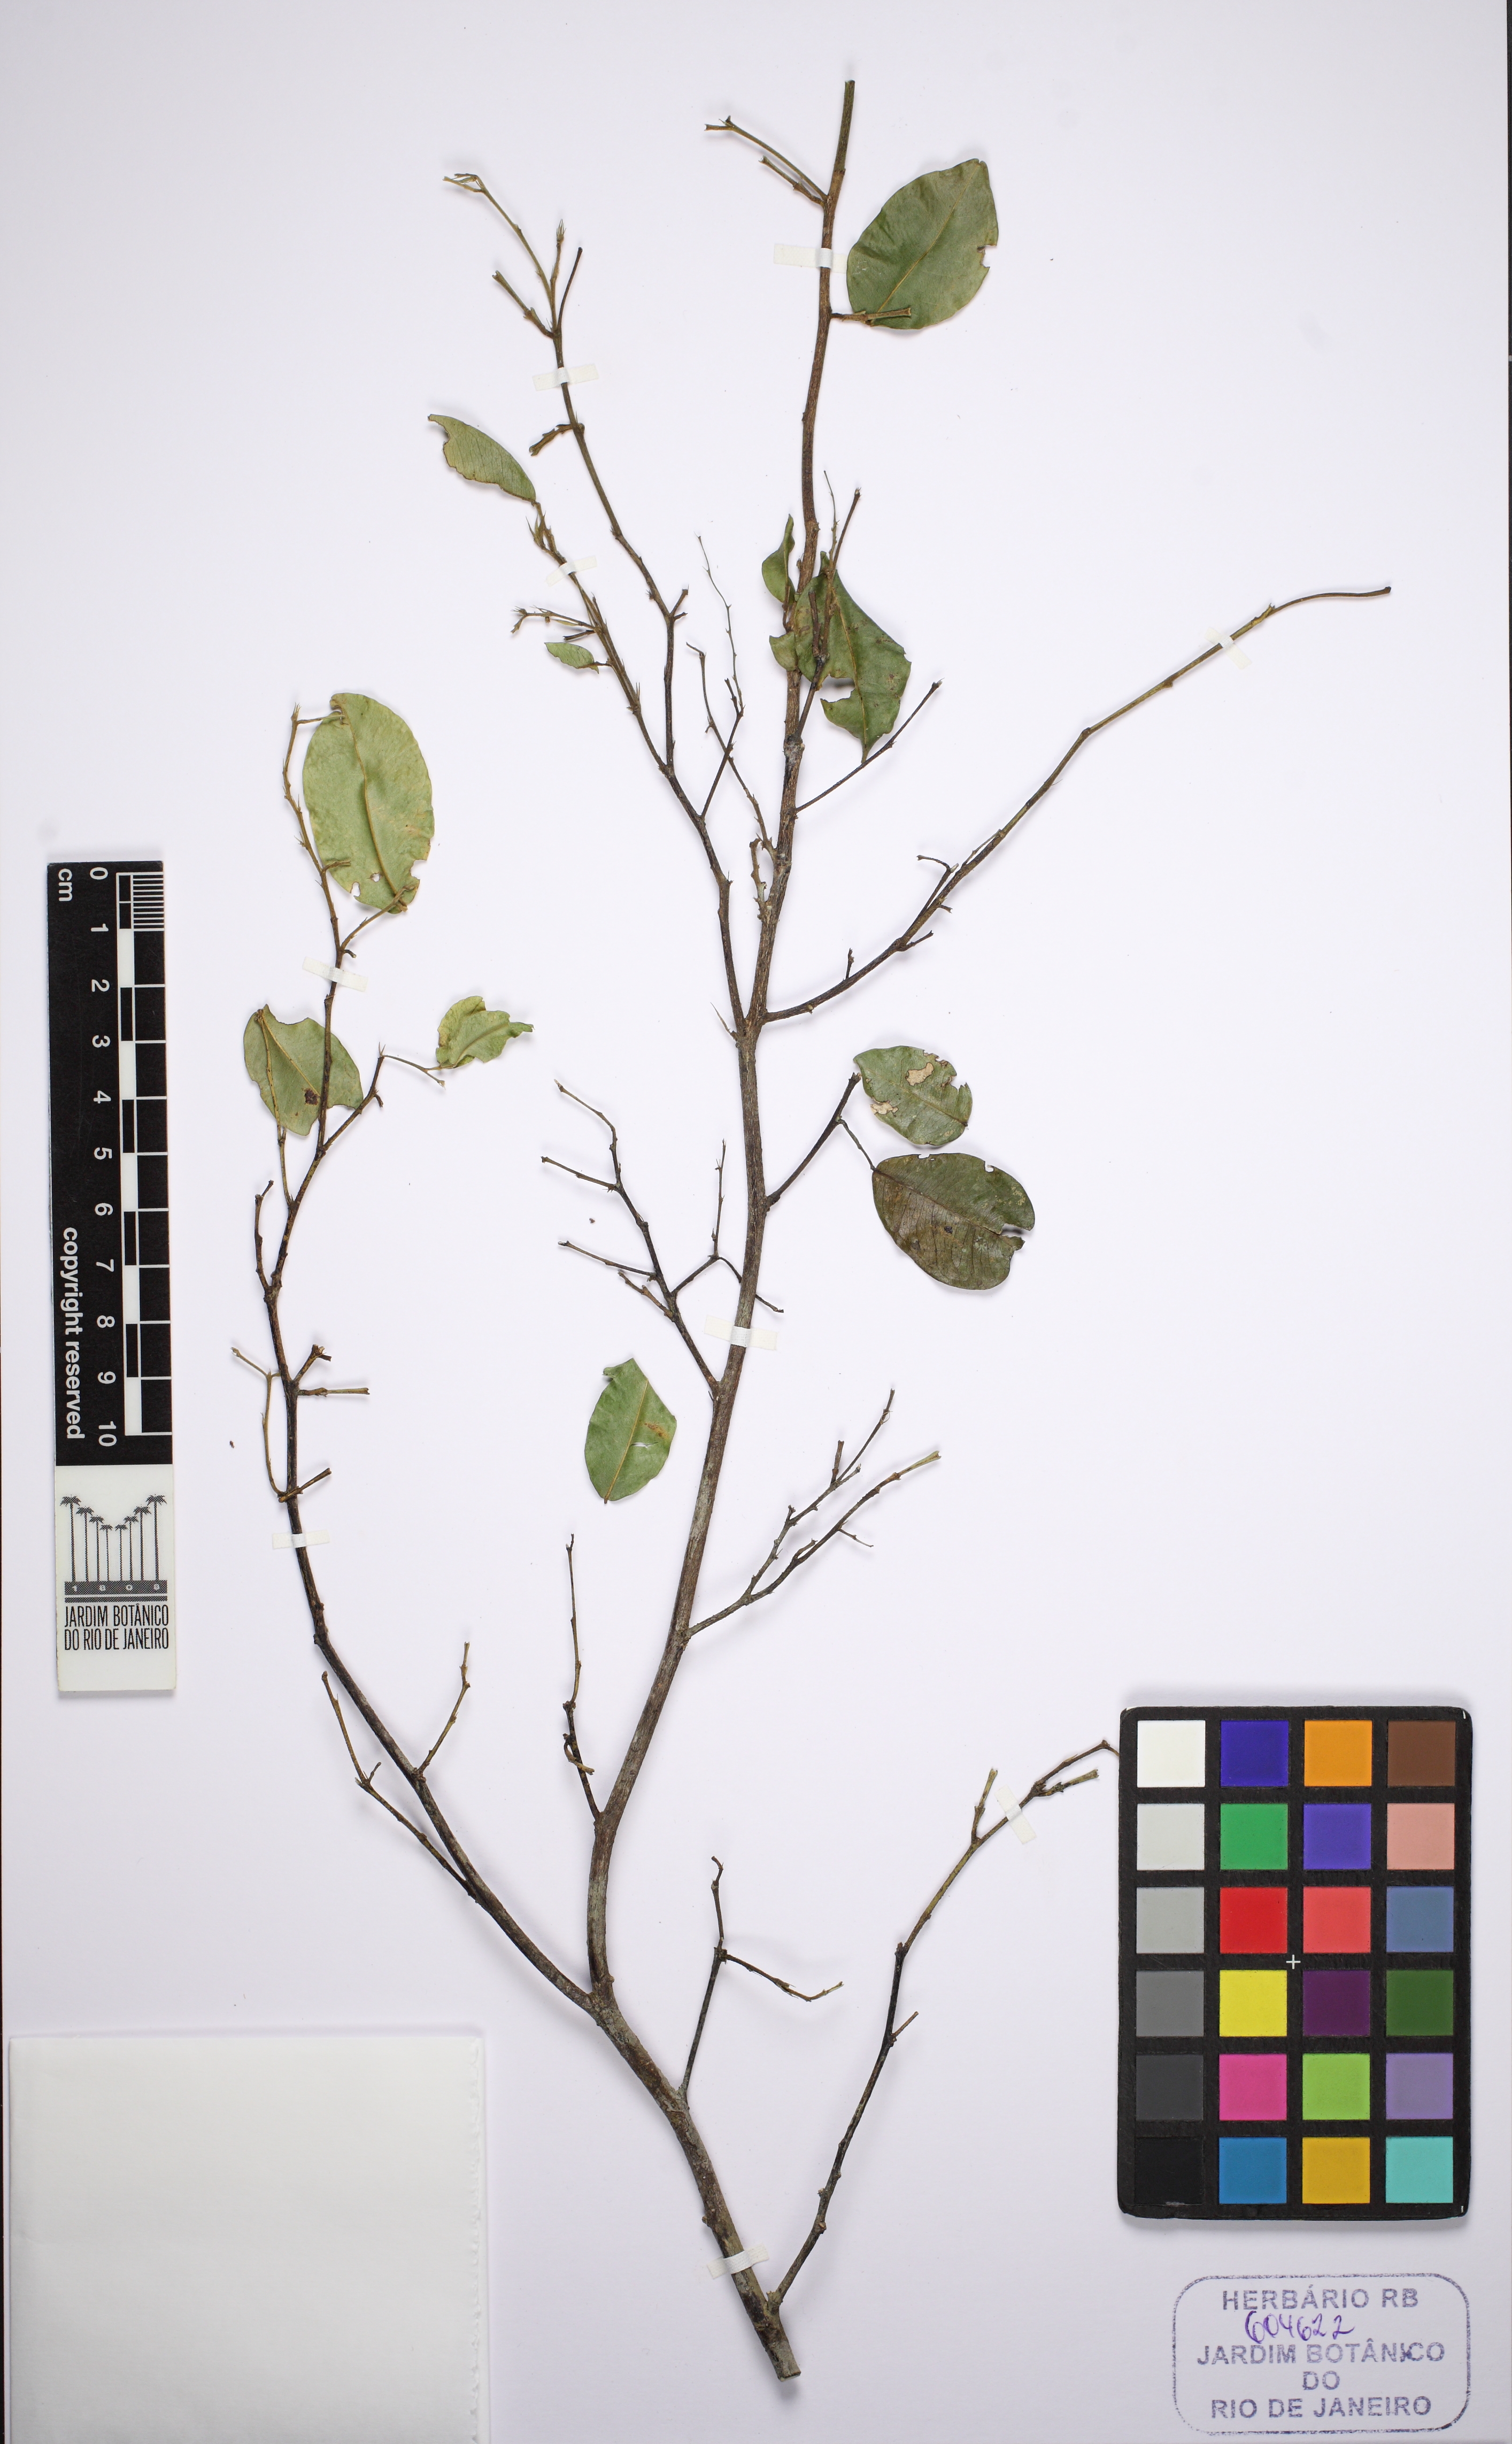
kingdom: Plantae
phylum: Tracheophyta
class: Magnoliopsida
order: Fabales
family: Fabaceae
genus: Dialium
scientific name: Dialium guianense
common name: Ironwood
